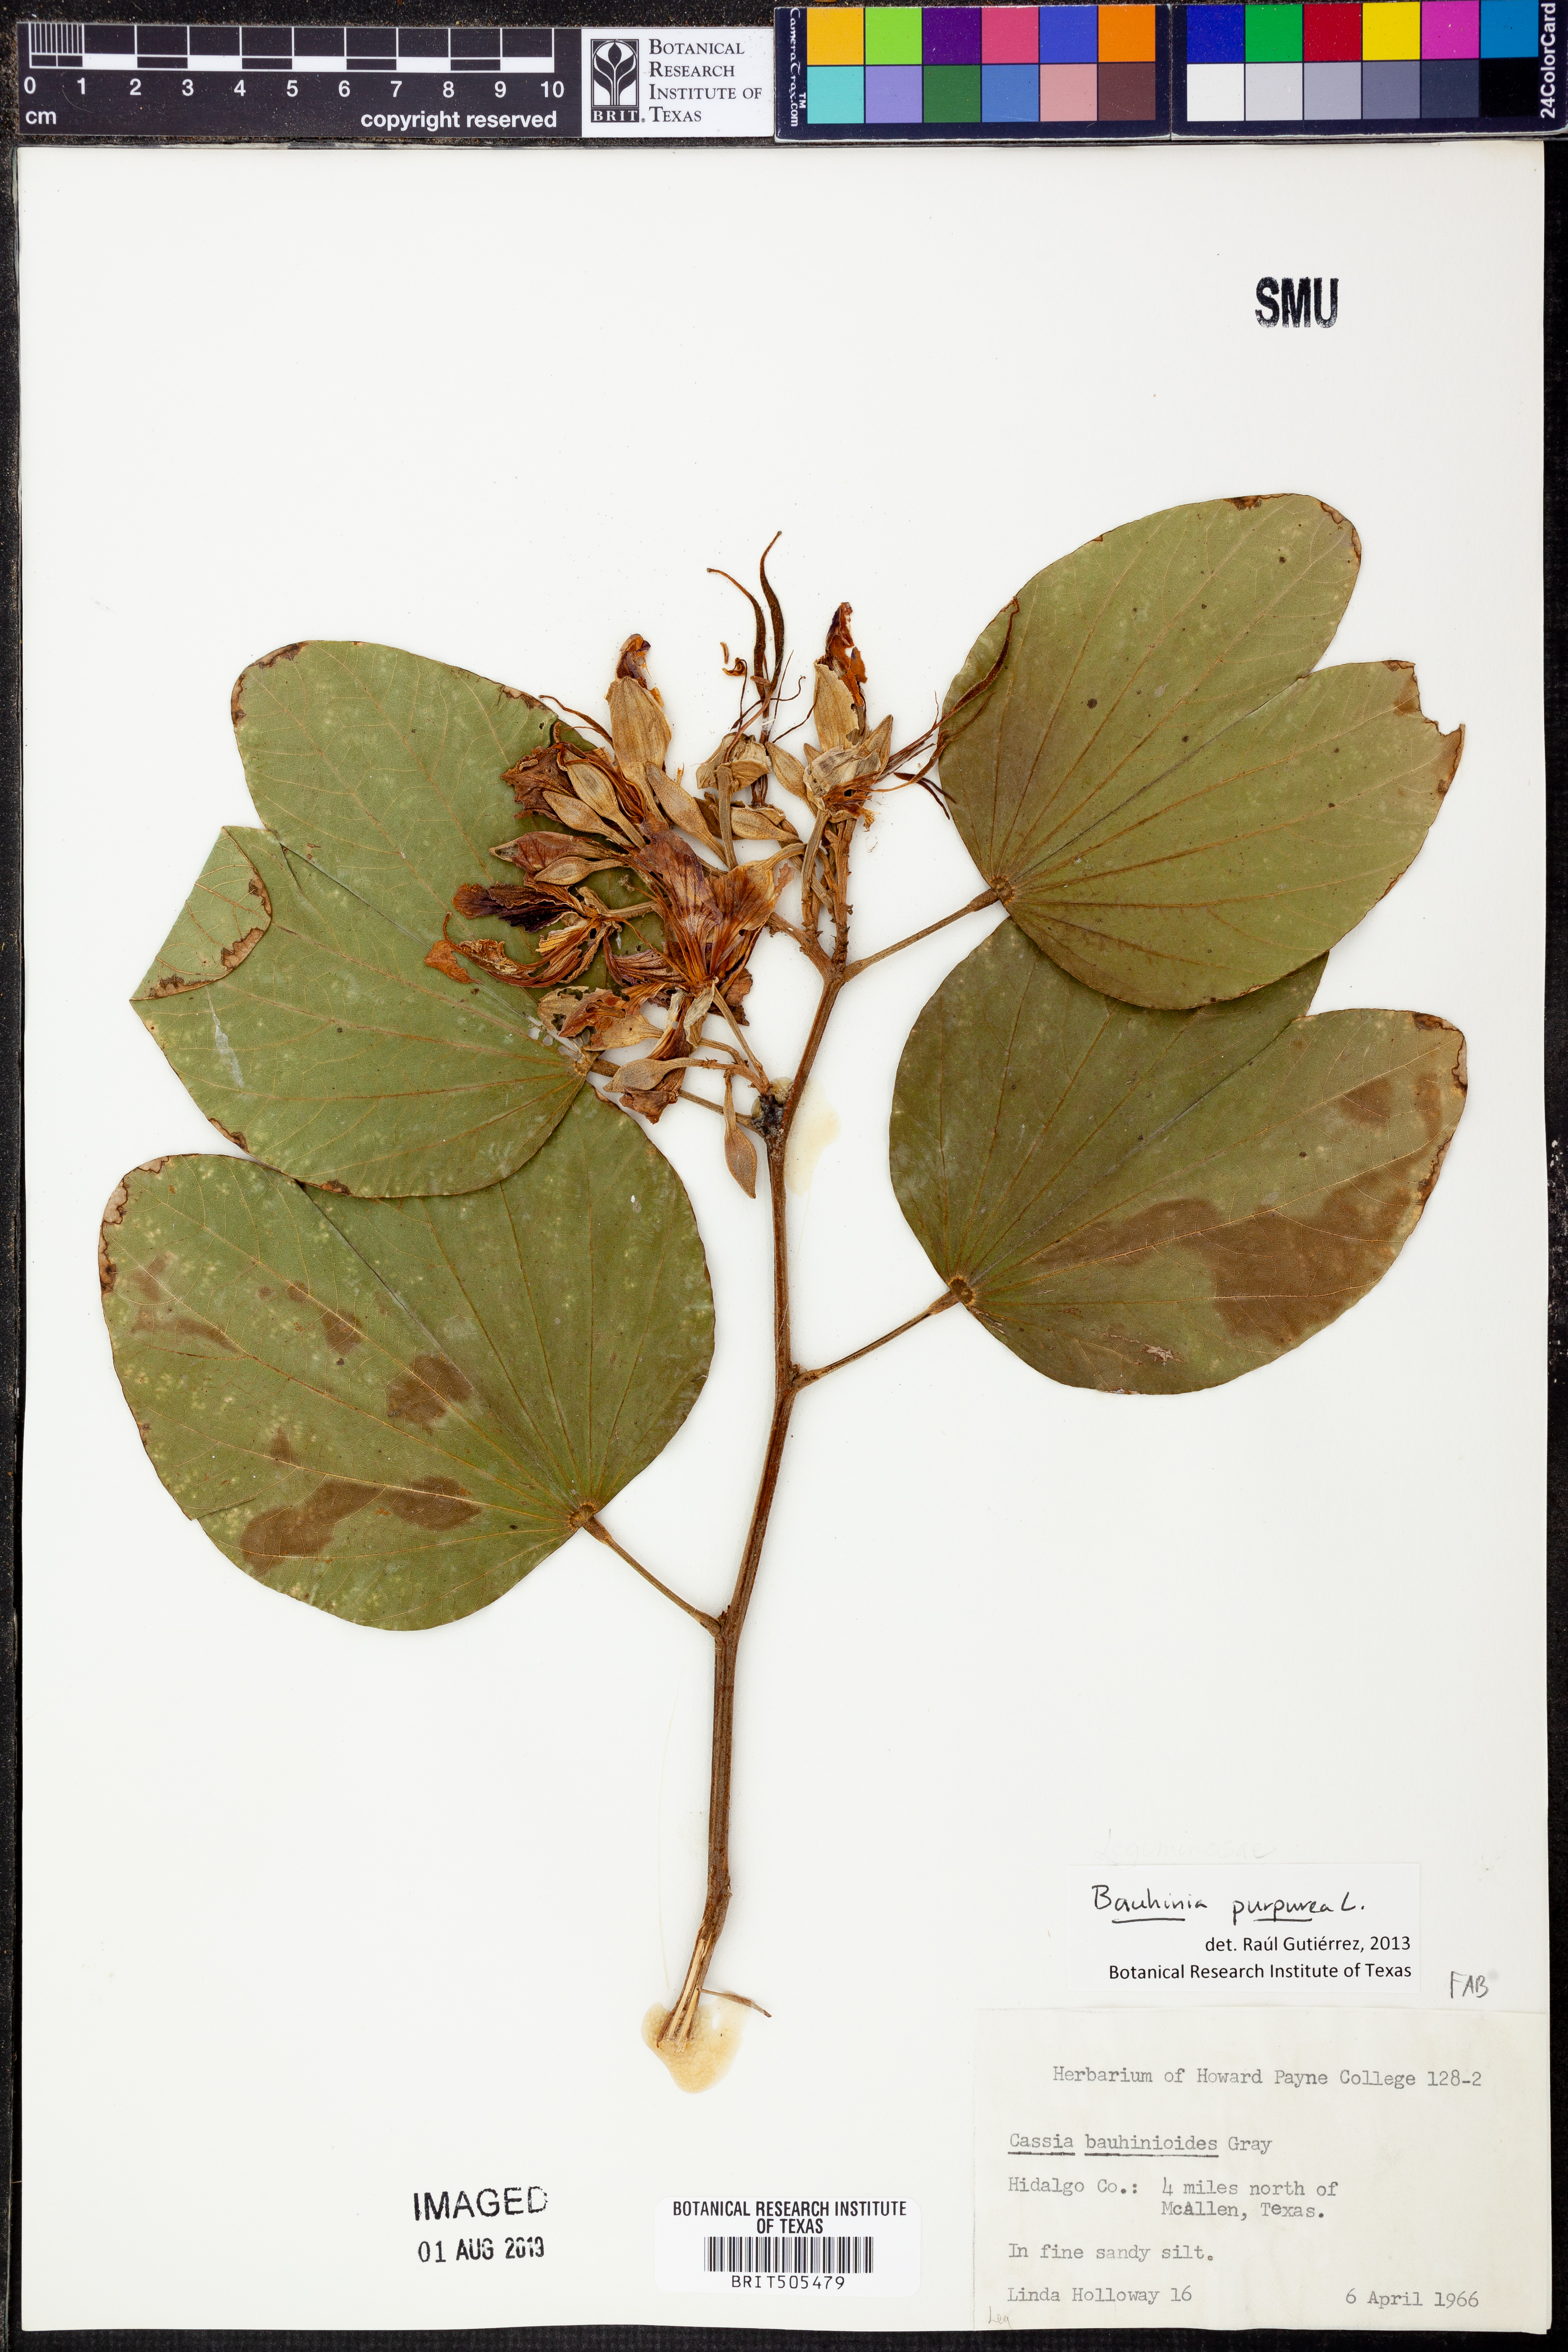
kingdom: Plantae
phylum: Tracheophyta
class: Magnoliopsida
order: Fabales
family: Fabaceae
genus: Bauhinia
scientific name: Bauhinia purpurea
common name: Butterfly-tree
